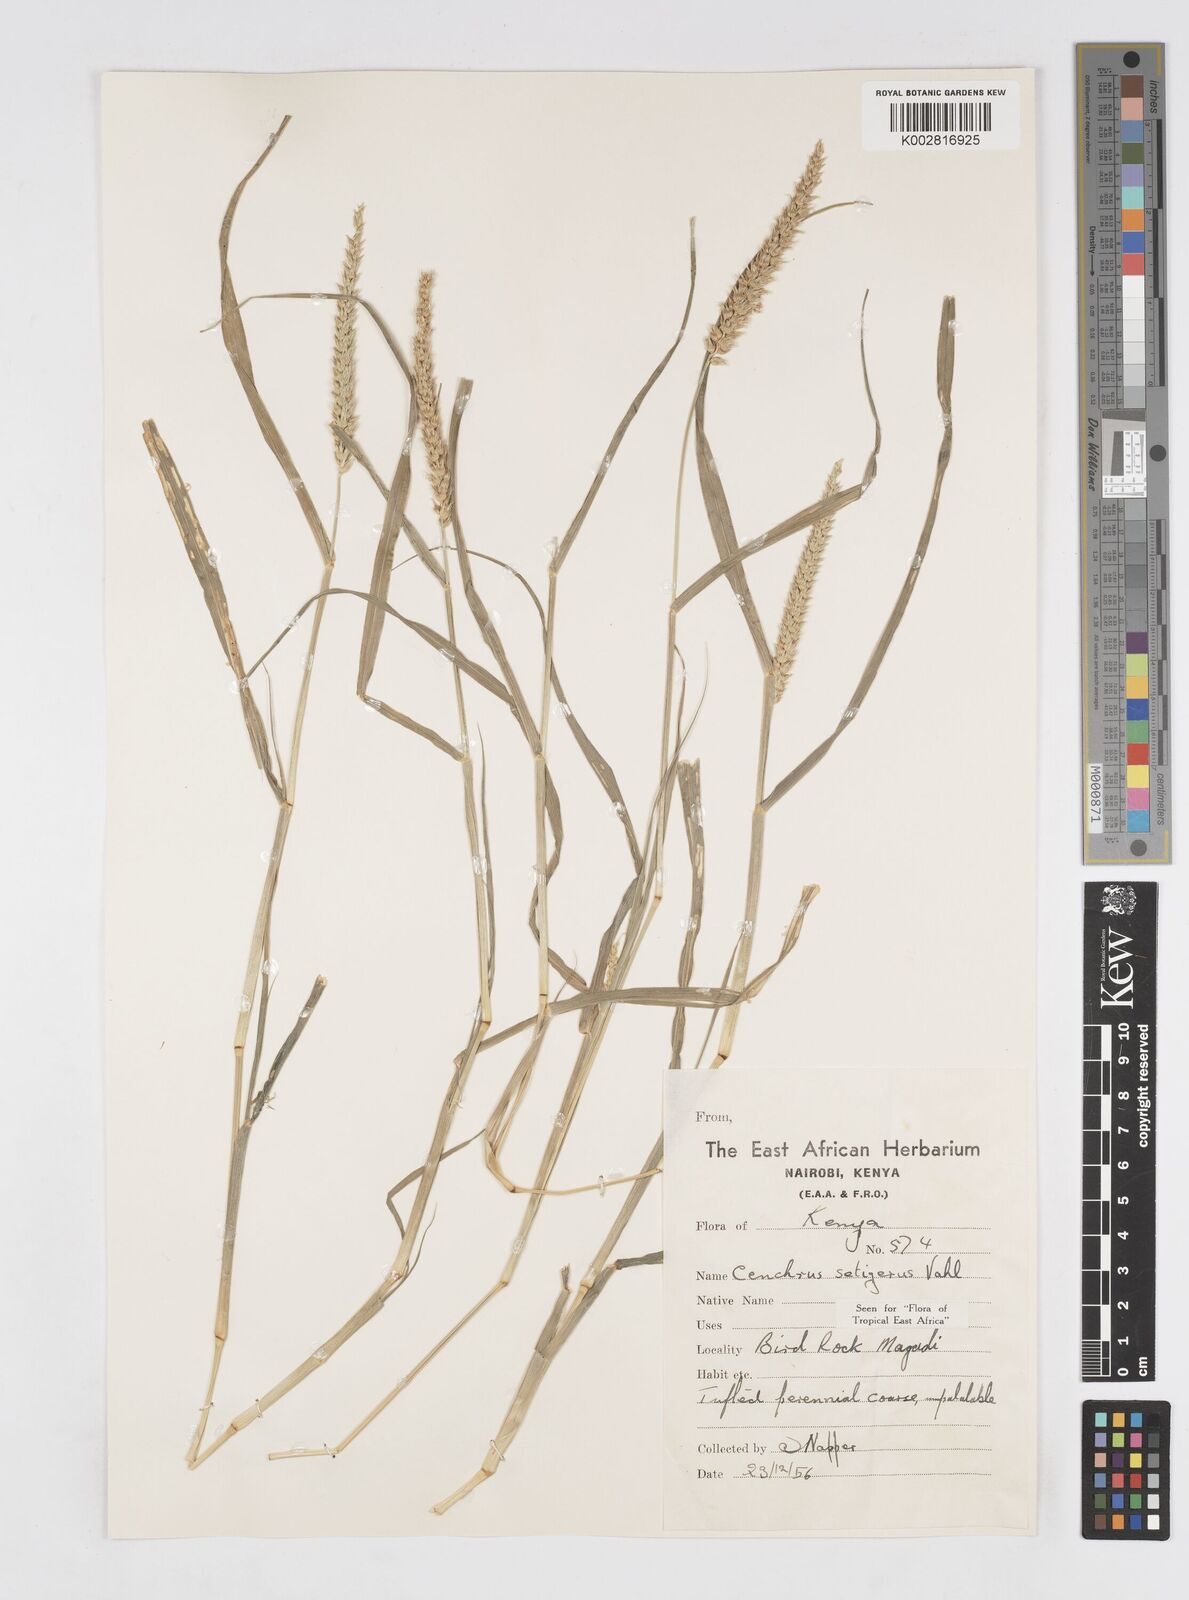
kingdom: Plantae
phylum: Tracheophyta
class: Liliopsida
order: Poales
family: Poaceae
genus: Cenchrus
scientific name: Cenchrus setigerus
